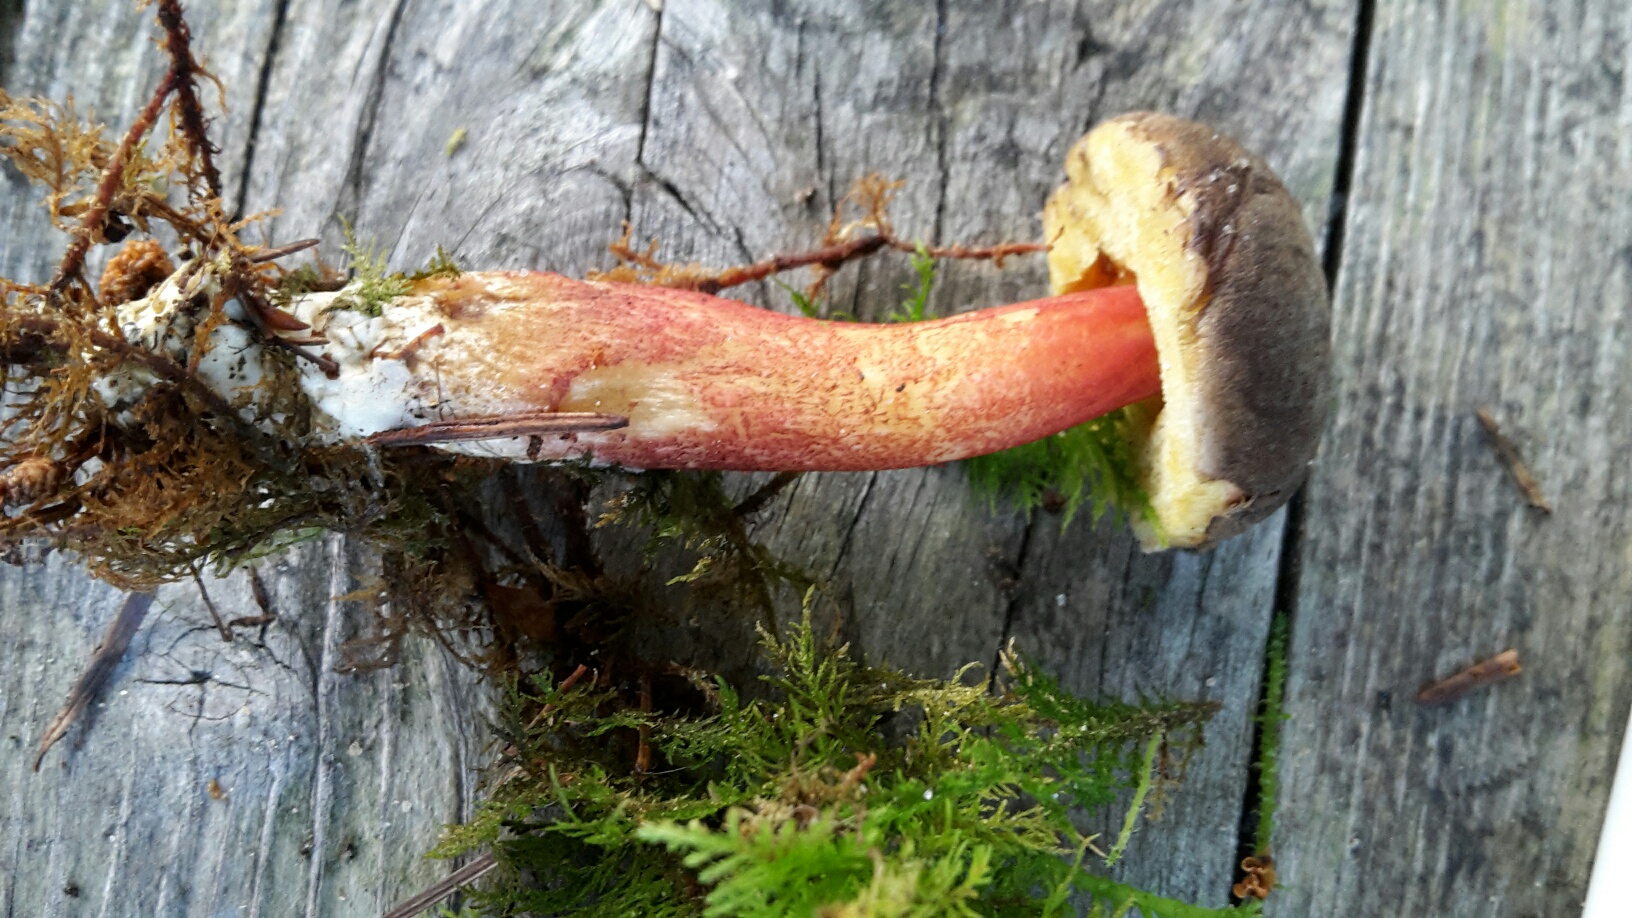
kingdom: Fungi
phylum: Basidiomycota
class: Agaricomycetes
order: Boletales
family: Boletaceae
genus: Xerocomellus
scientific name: Xerocomellus chrysenteron
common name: rødsprukken rørhat
